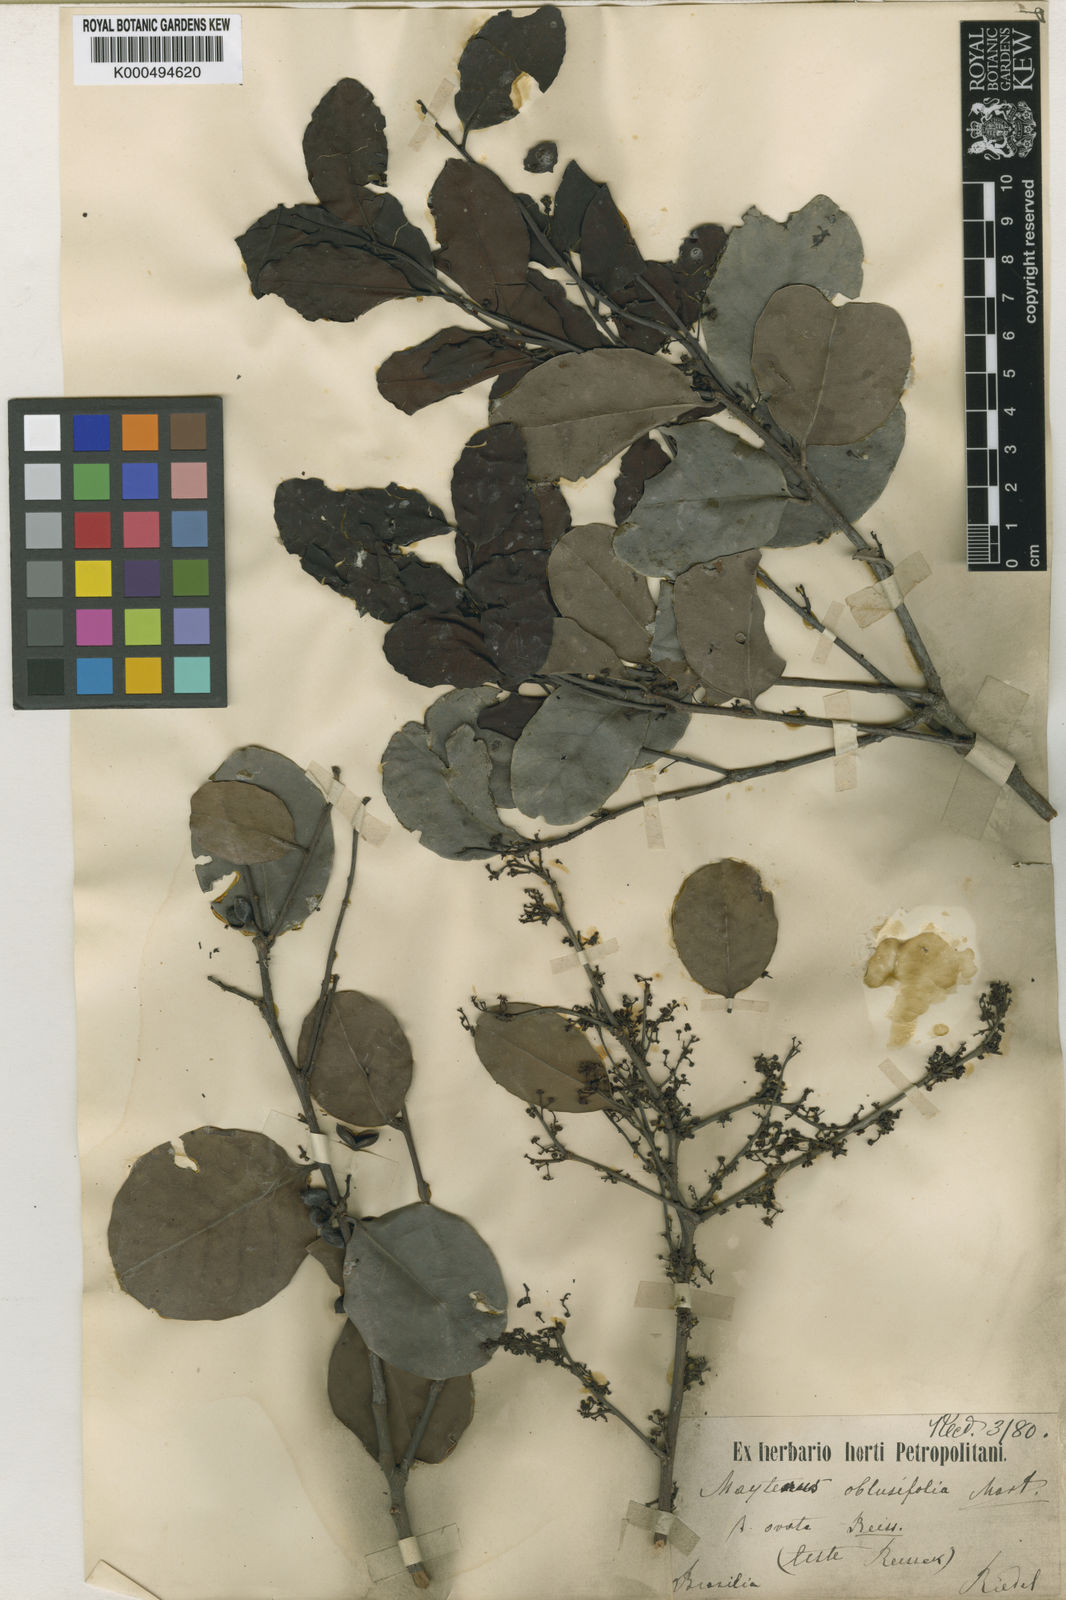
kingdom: Plantae
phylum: Tracheophyta
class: Magnoliopsida
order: Celastrales
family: Celastraceae
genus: Monteverdia
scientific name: Monteverdia obtusifolia
